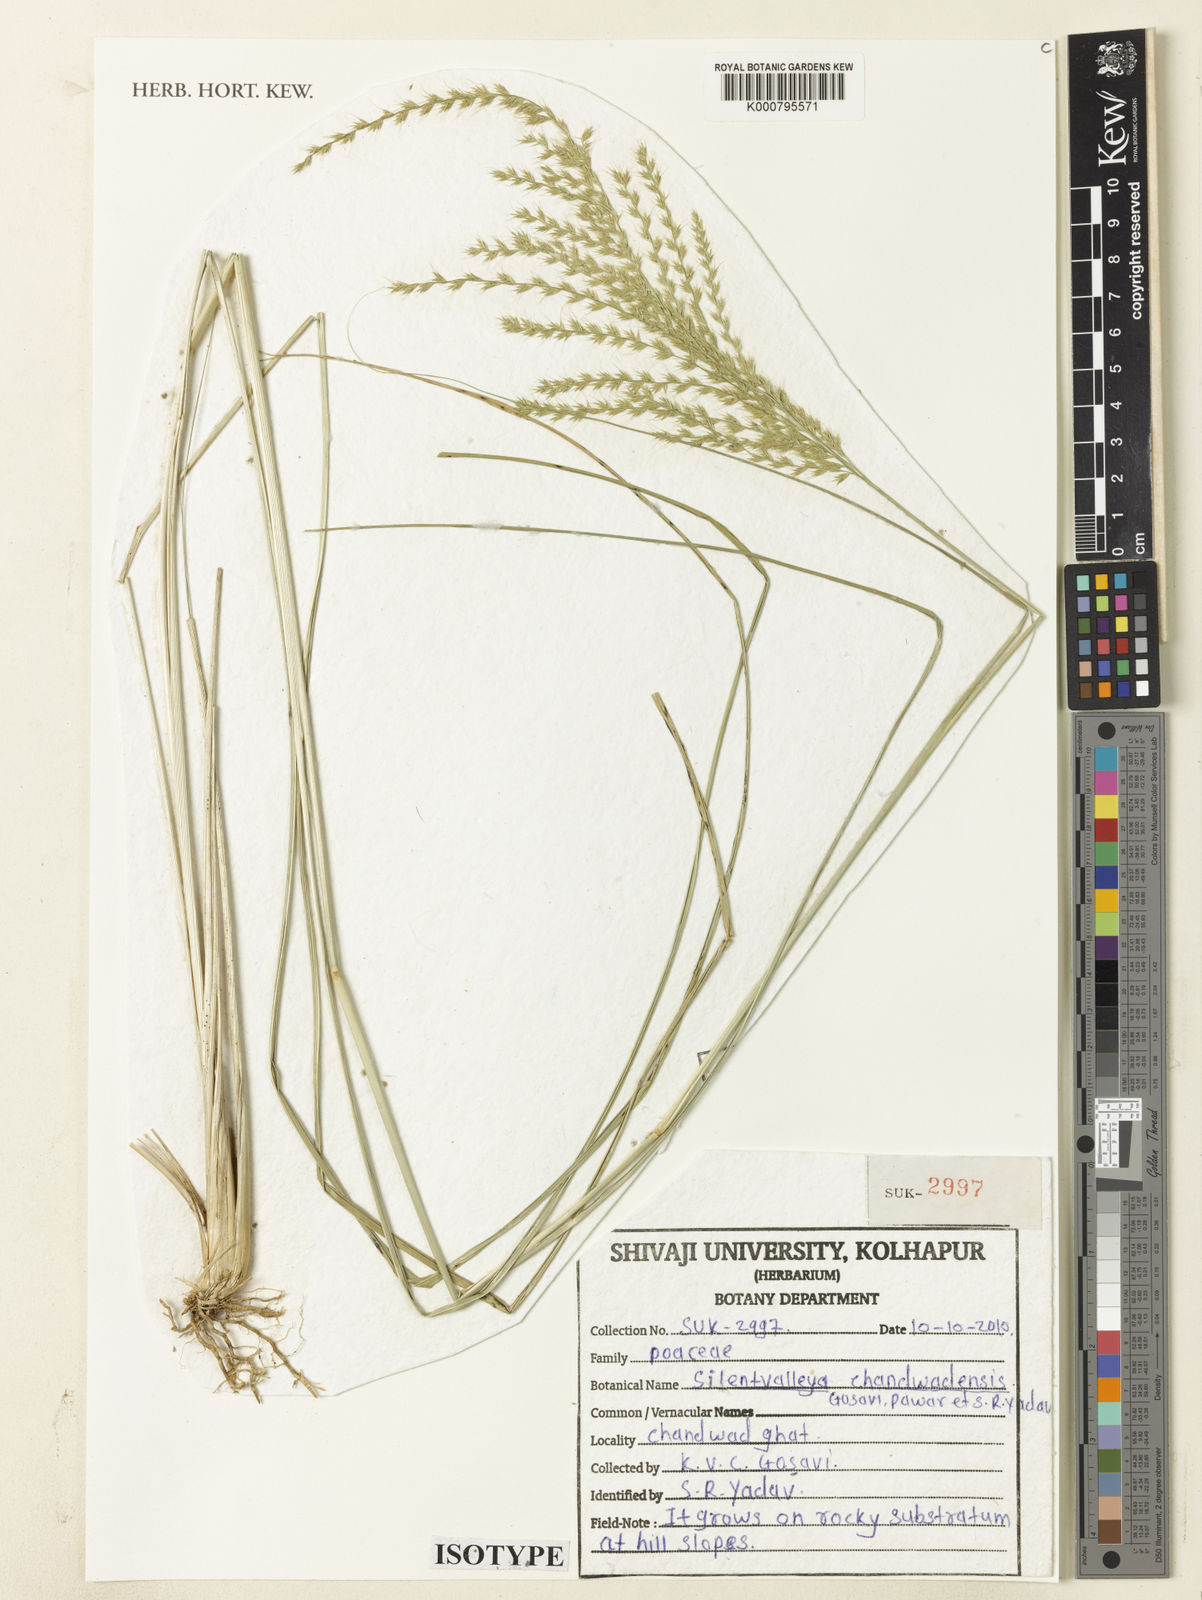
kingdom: Plantae
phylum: Tracheophyta
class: Liliopsida
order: Poales
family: Poaceae
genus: Silentvalleya
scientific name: Silentvalleya chandwadensis
